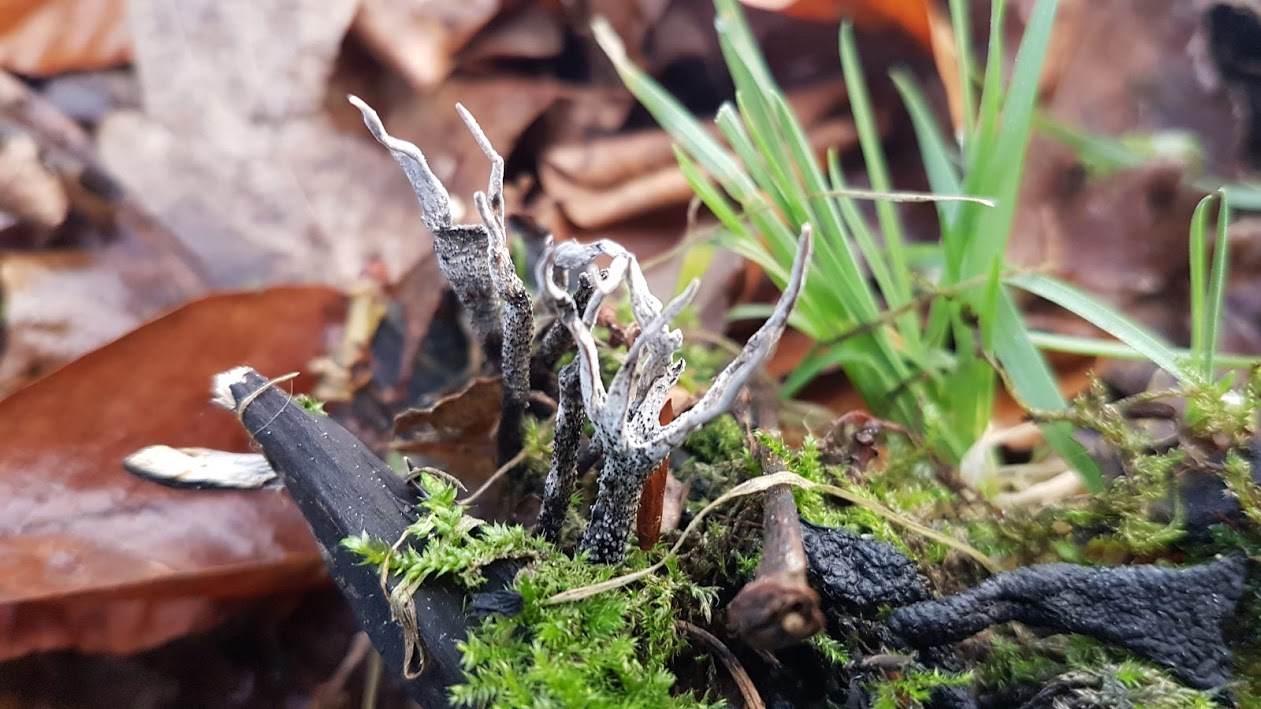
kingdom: Fungi
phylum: Ascomycota
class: Sordariomycetes
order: Xylariales
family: Xylariaceae
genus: Xylaria
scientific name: Xylaria hypoxylon
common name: grenet stødsvamp
